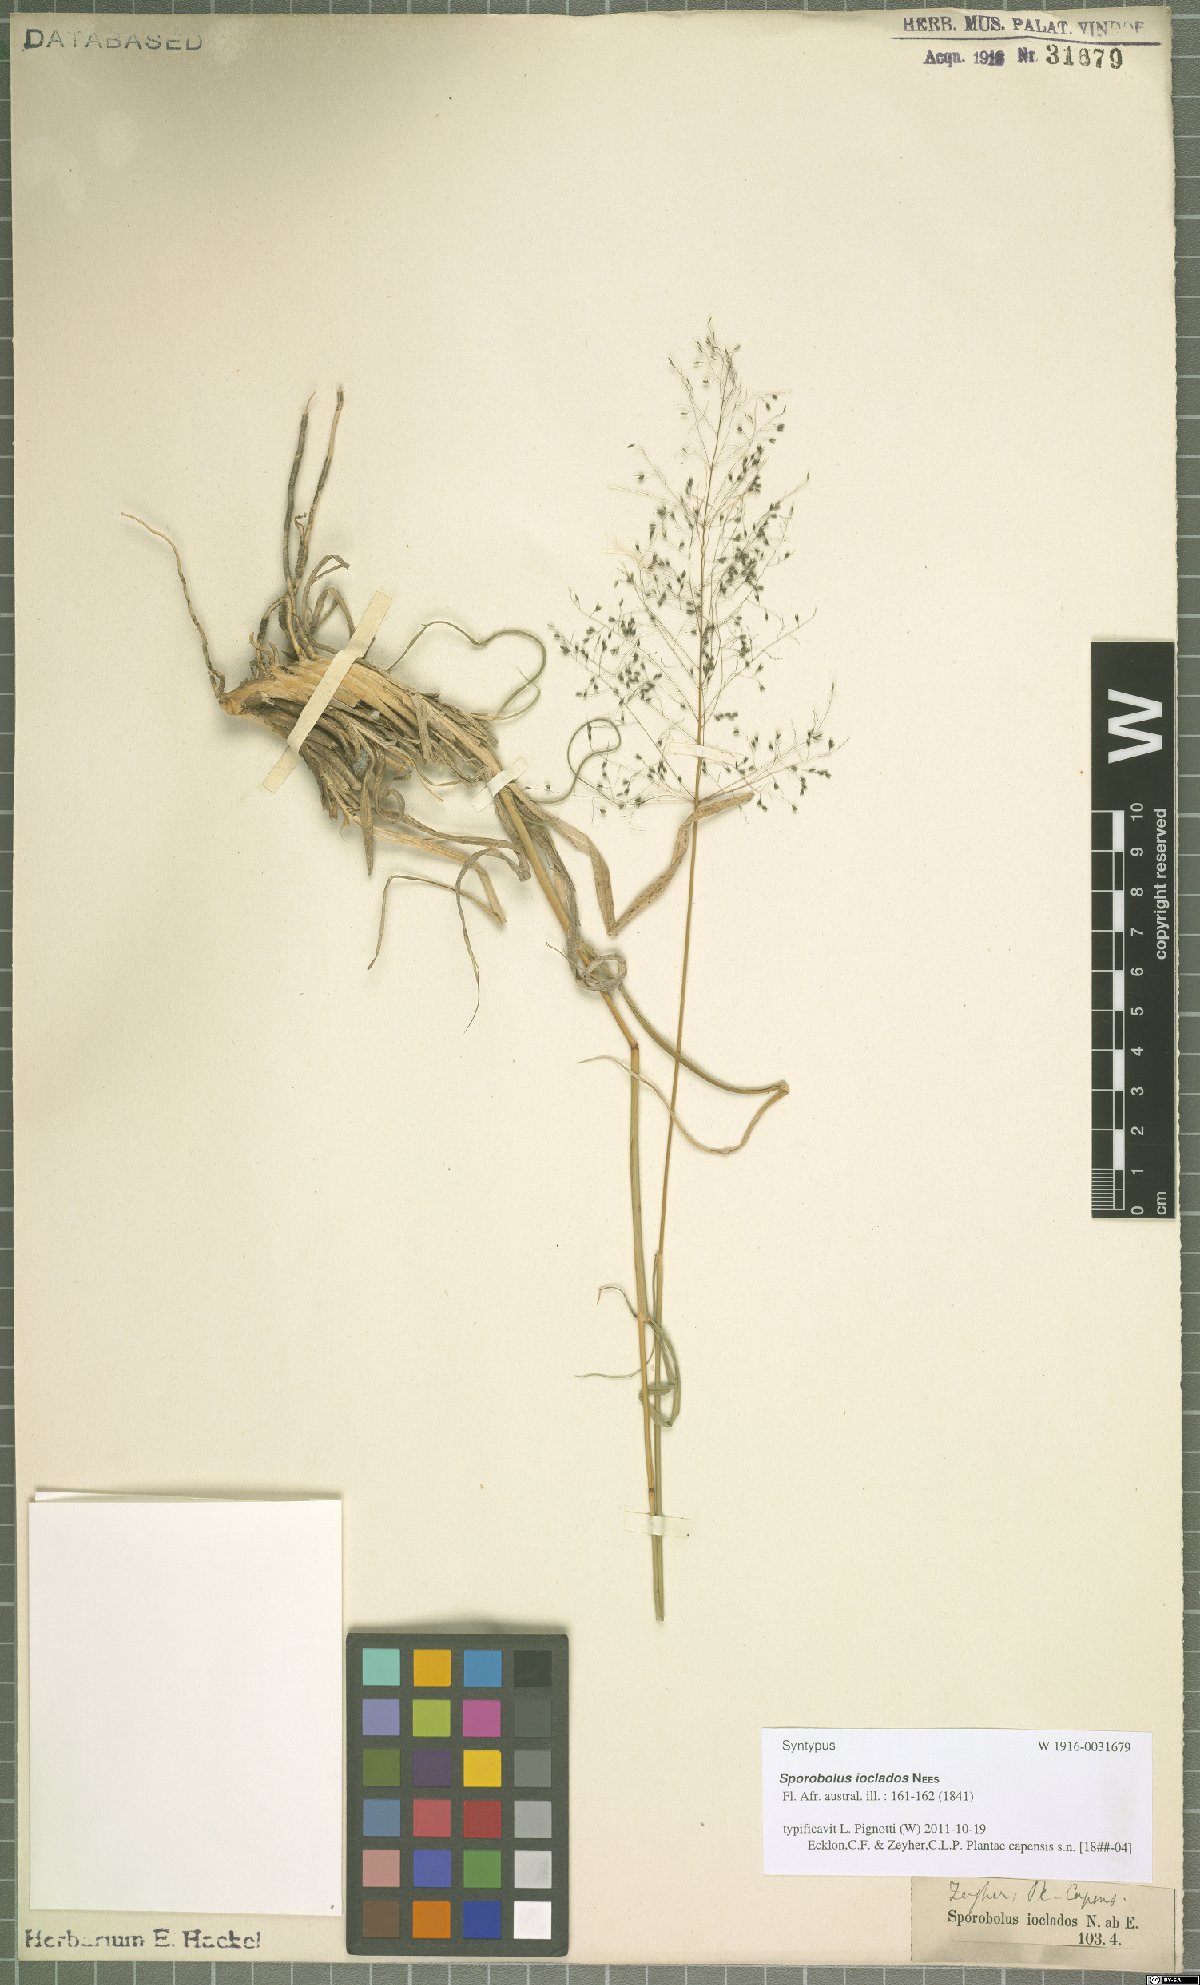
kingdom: Plantae
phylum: Tracheophyta
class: Liliopsida
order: Poales
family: Poaceae
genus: Sporobolus
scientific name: Sporobolus ioclados
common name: Pan dropseed
